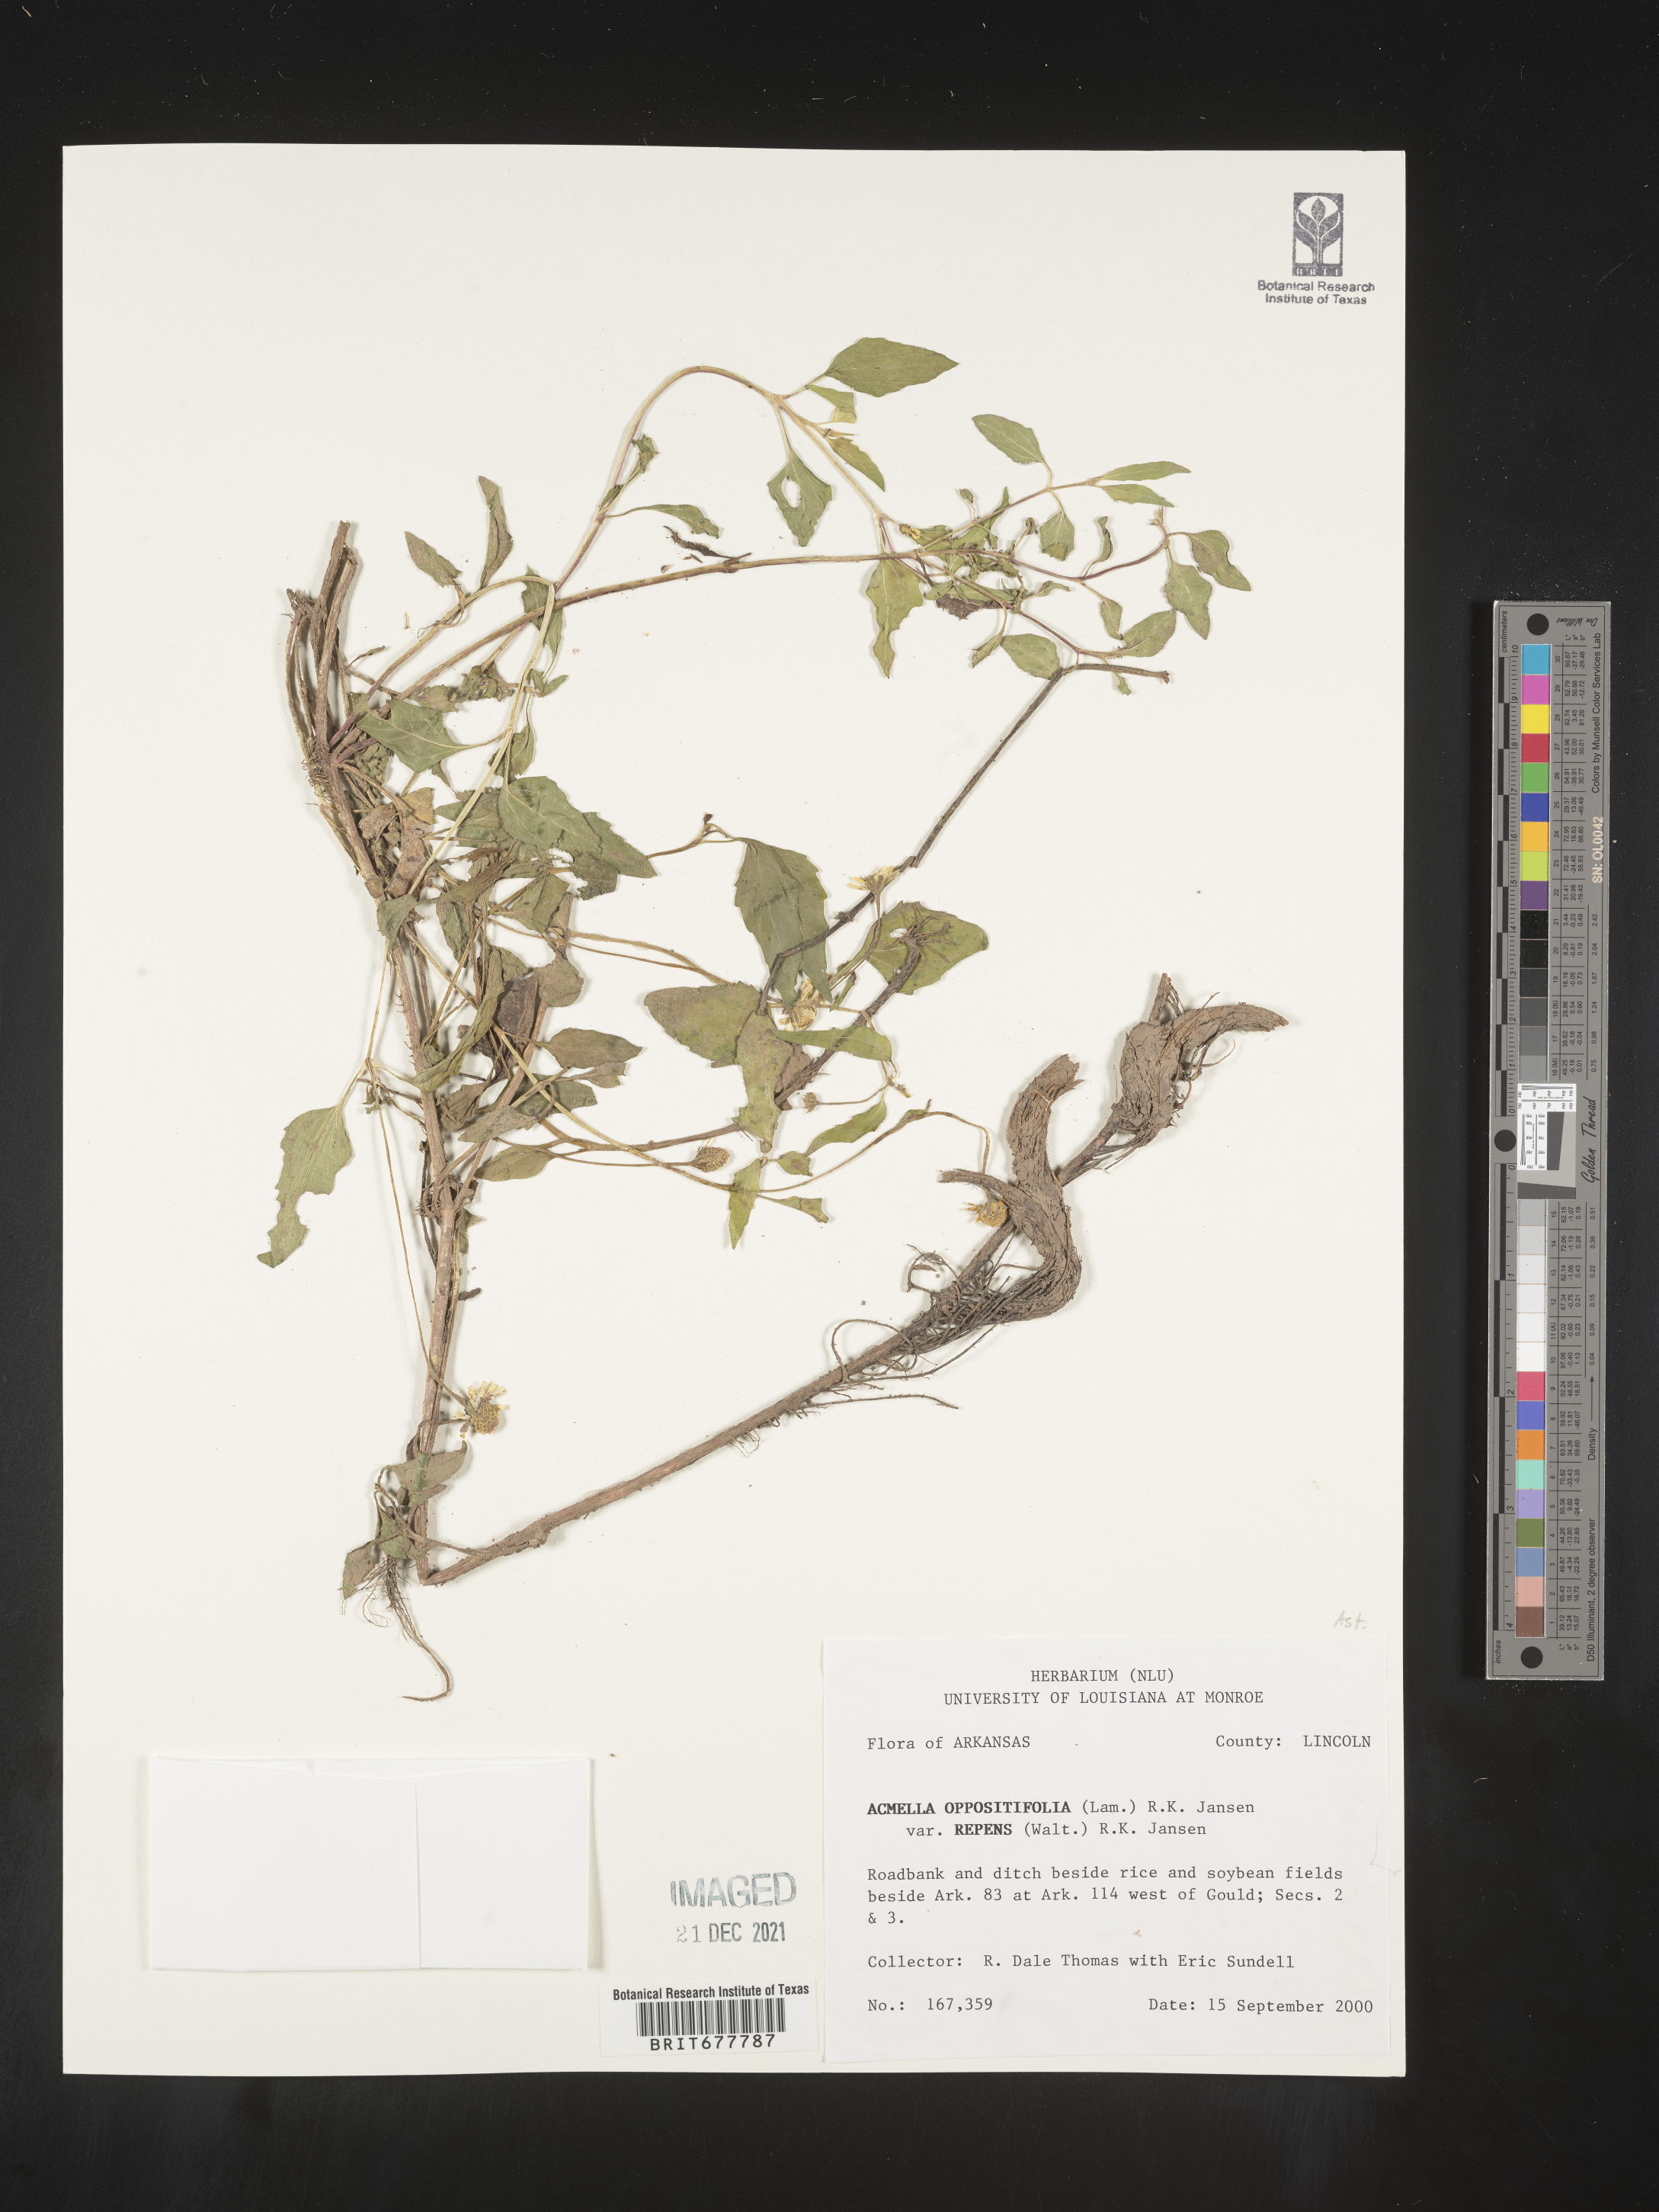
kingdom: Plantae
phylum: Tracheophyta
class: Magnoliopsida
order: Asterales
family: Asteraceae
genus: Spilanthes
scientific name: Spilanthes
